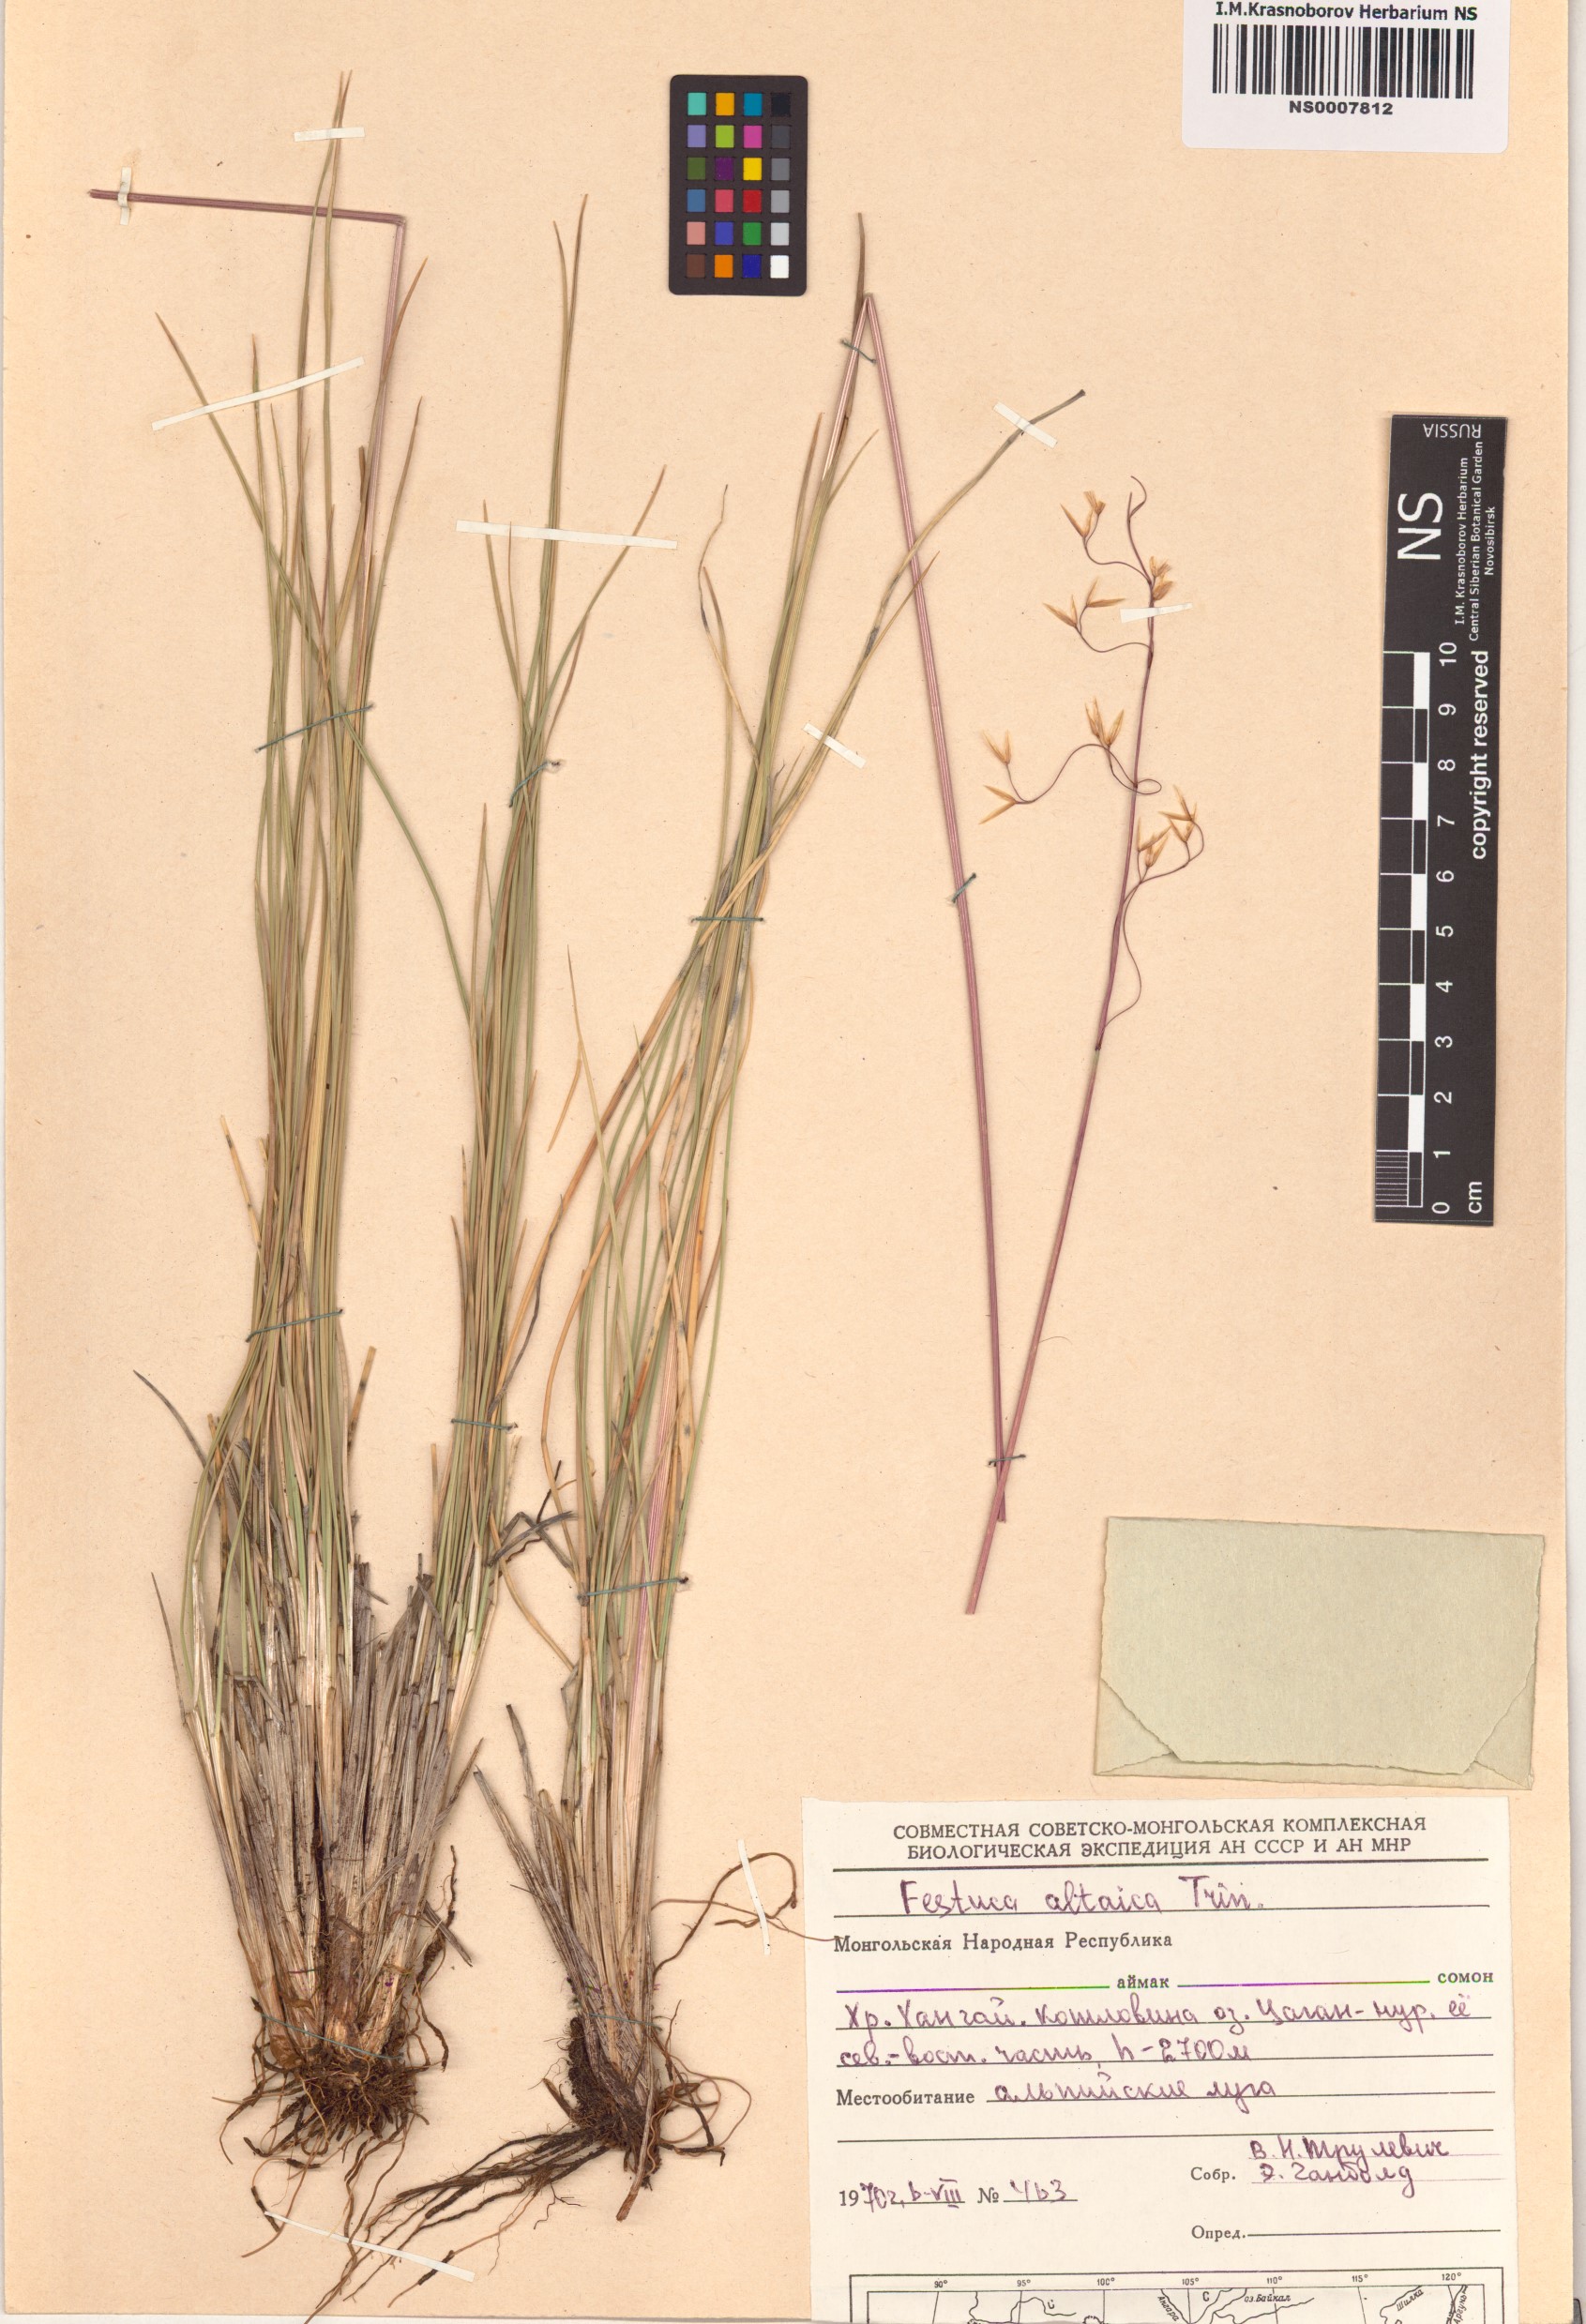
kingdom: Plantae
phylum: Tracheophyta
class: Liliopsida
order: Poales
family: Poaceae
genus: Festuca
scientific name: Festuca altaica
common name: Northern rough fescue
